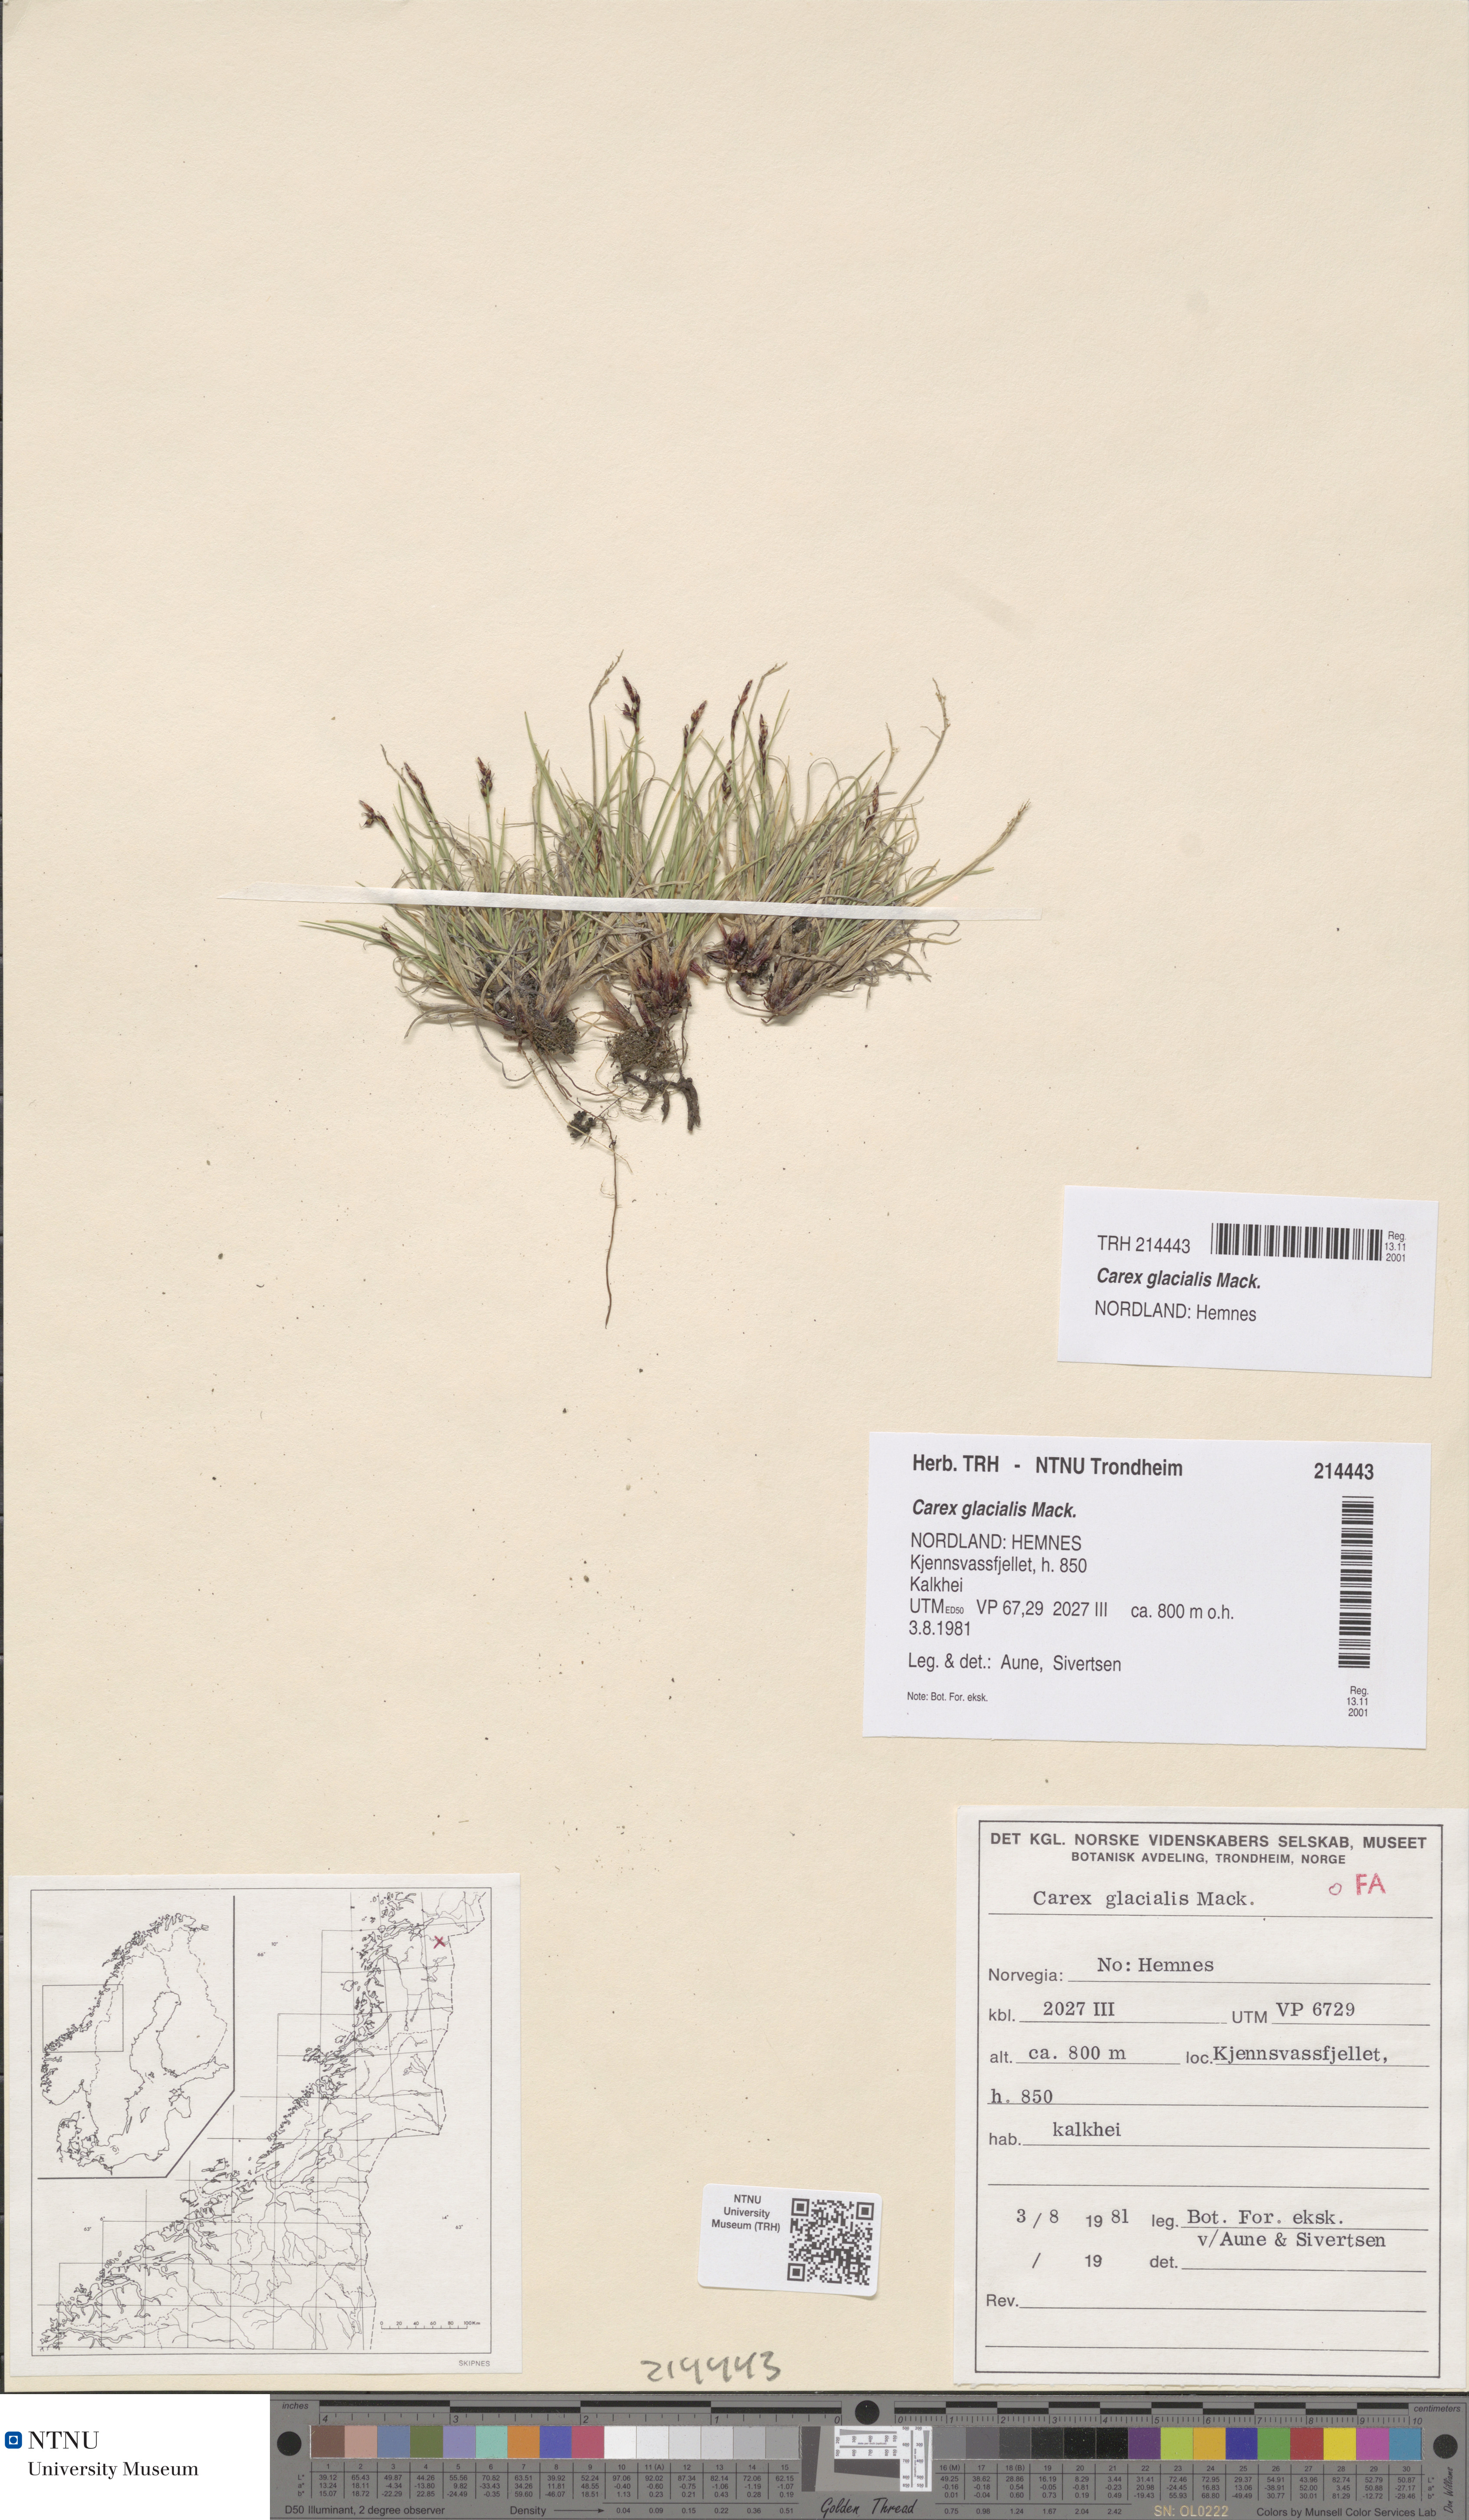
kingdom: Plantae
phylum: Tracheophyta
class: Liliopsida
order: Poales
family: Cyperaceae
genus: Carex
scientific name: Carex glacialis
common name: Newfoundland sedge
